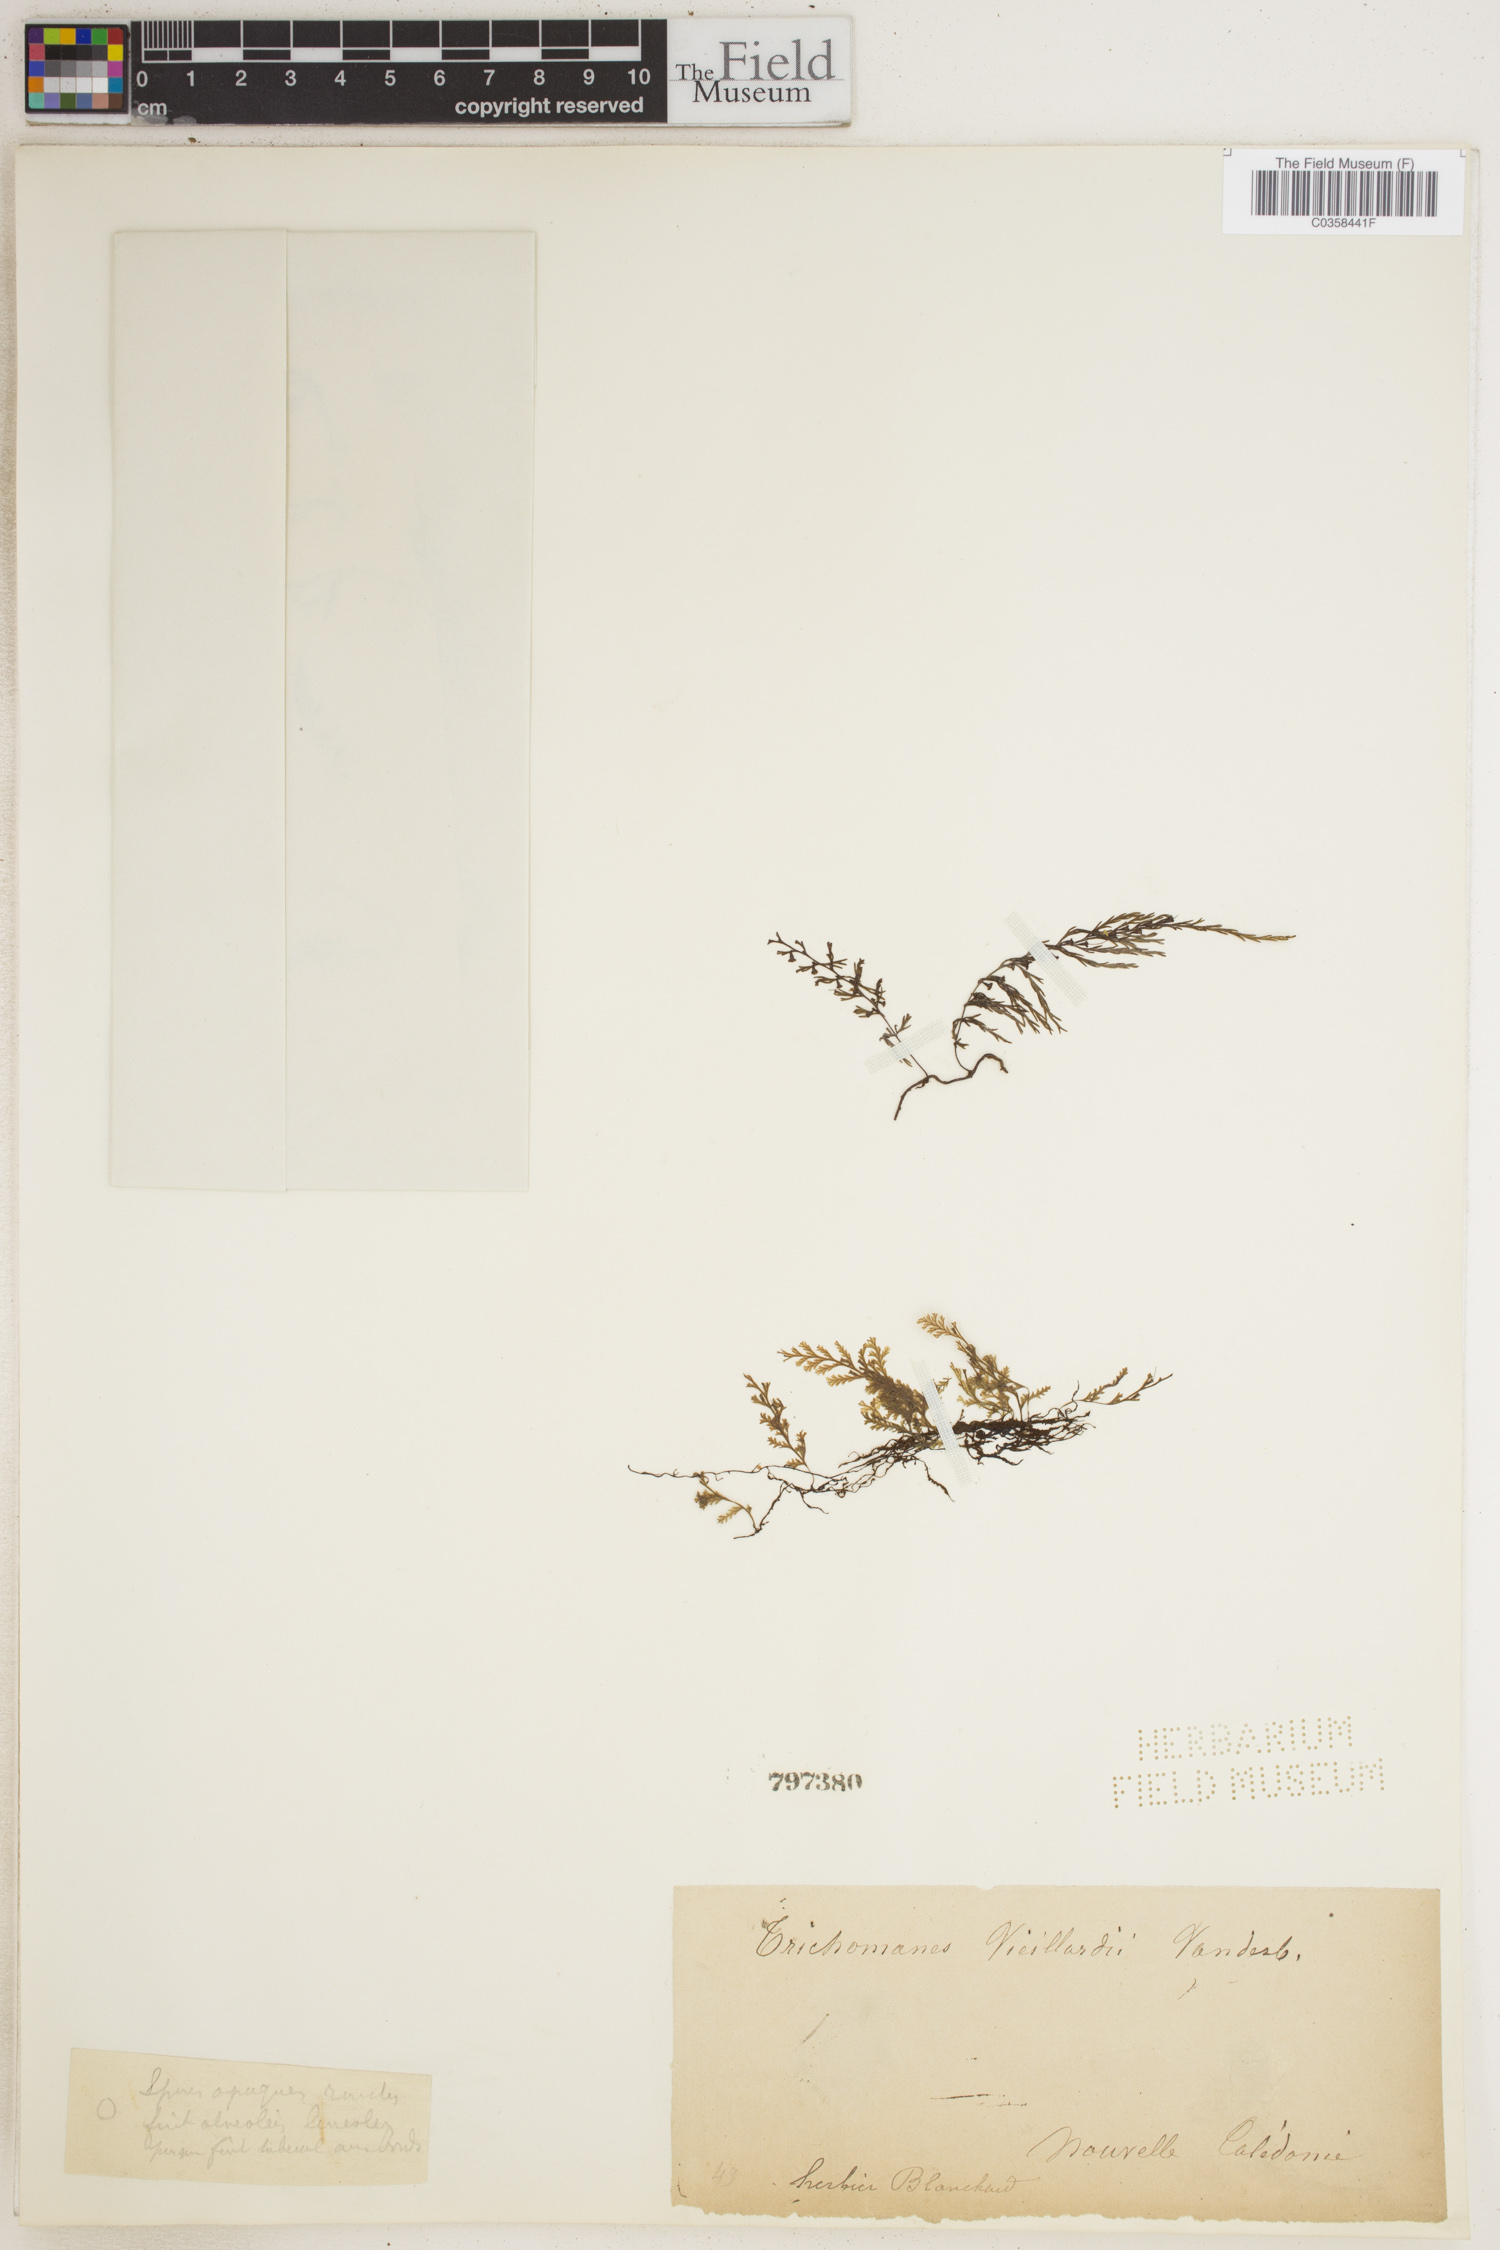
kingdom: Plantae
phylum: Tracheophyta
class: Polypodiopsida
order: Hymenophyllales
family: Hymenophyllaceae
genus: Polyphlebium
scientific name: Polyphlebium vieillardii
